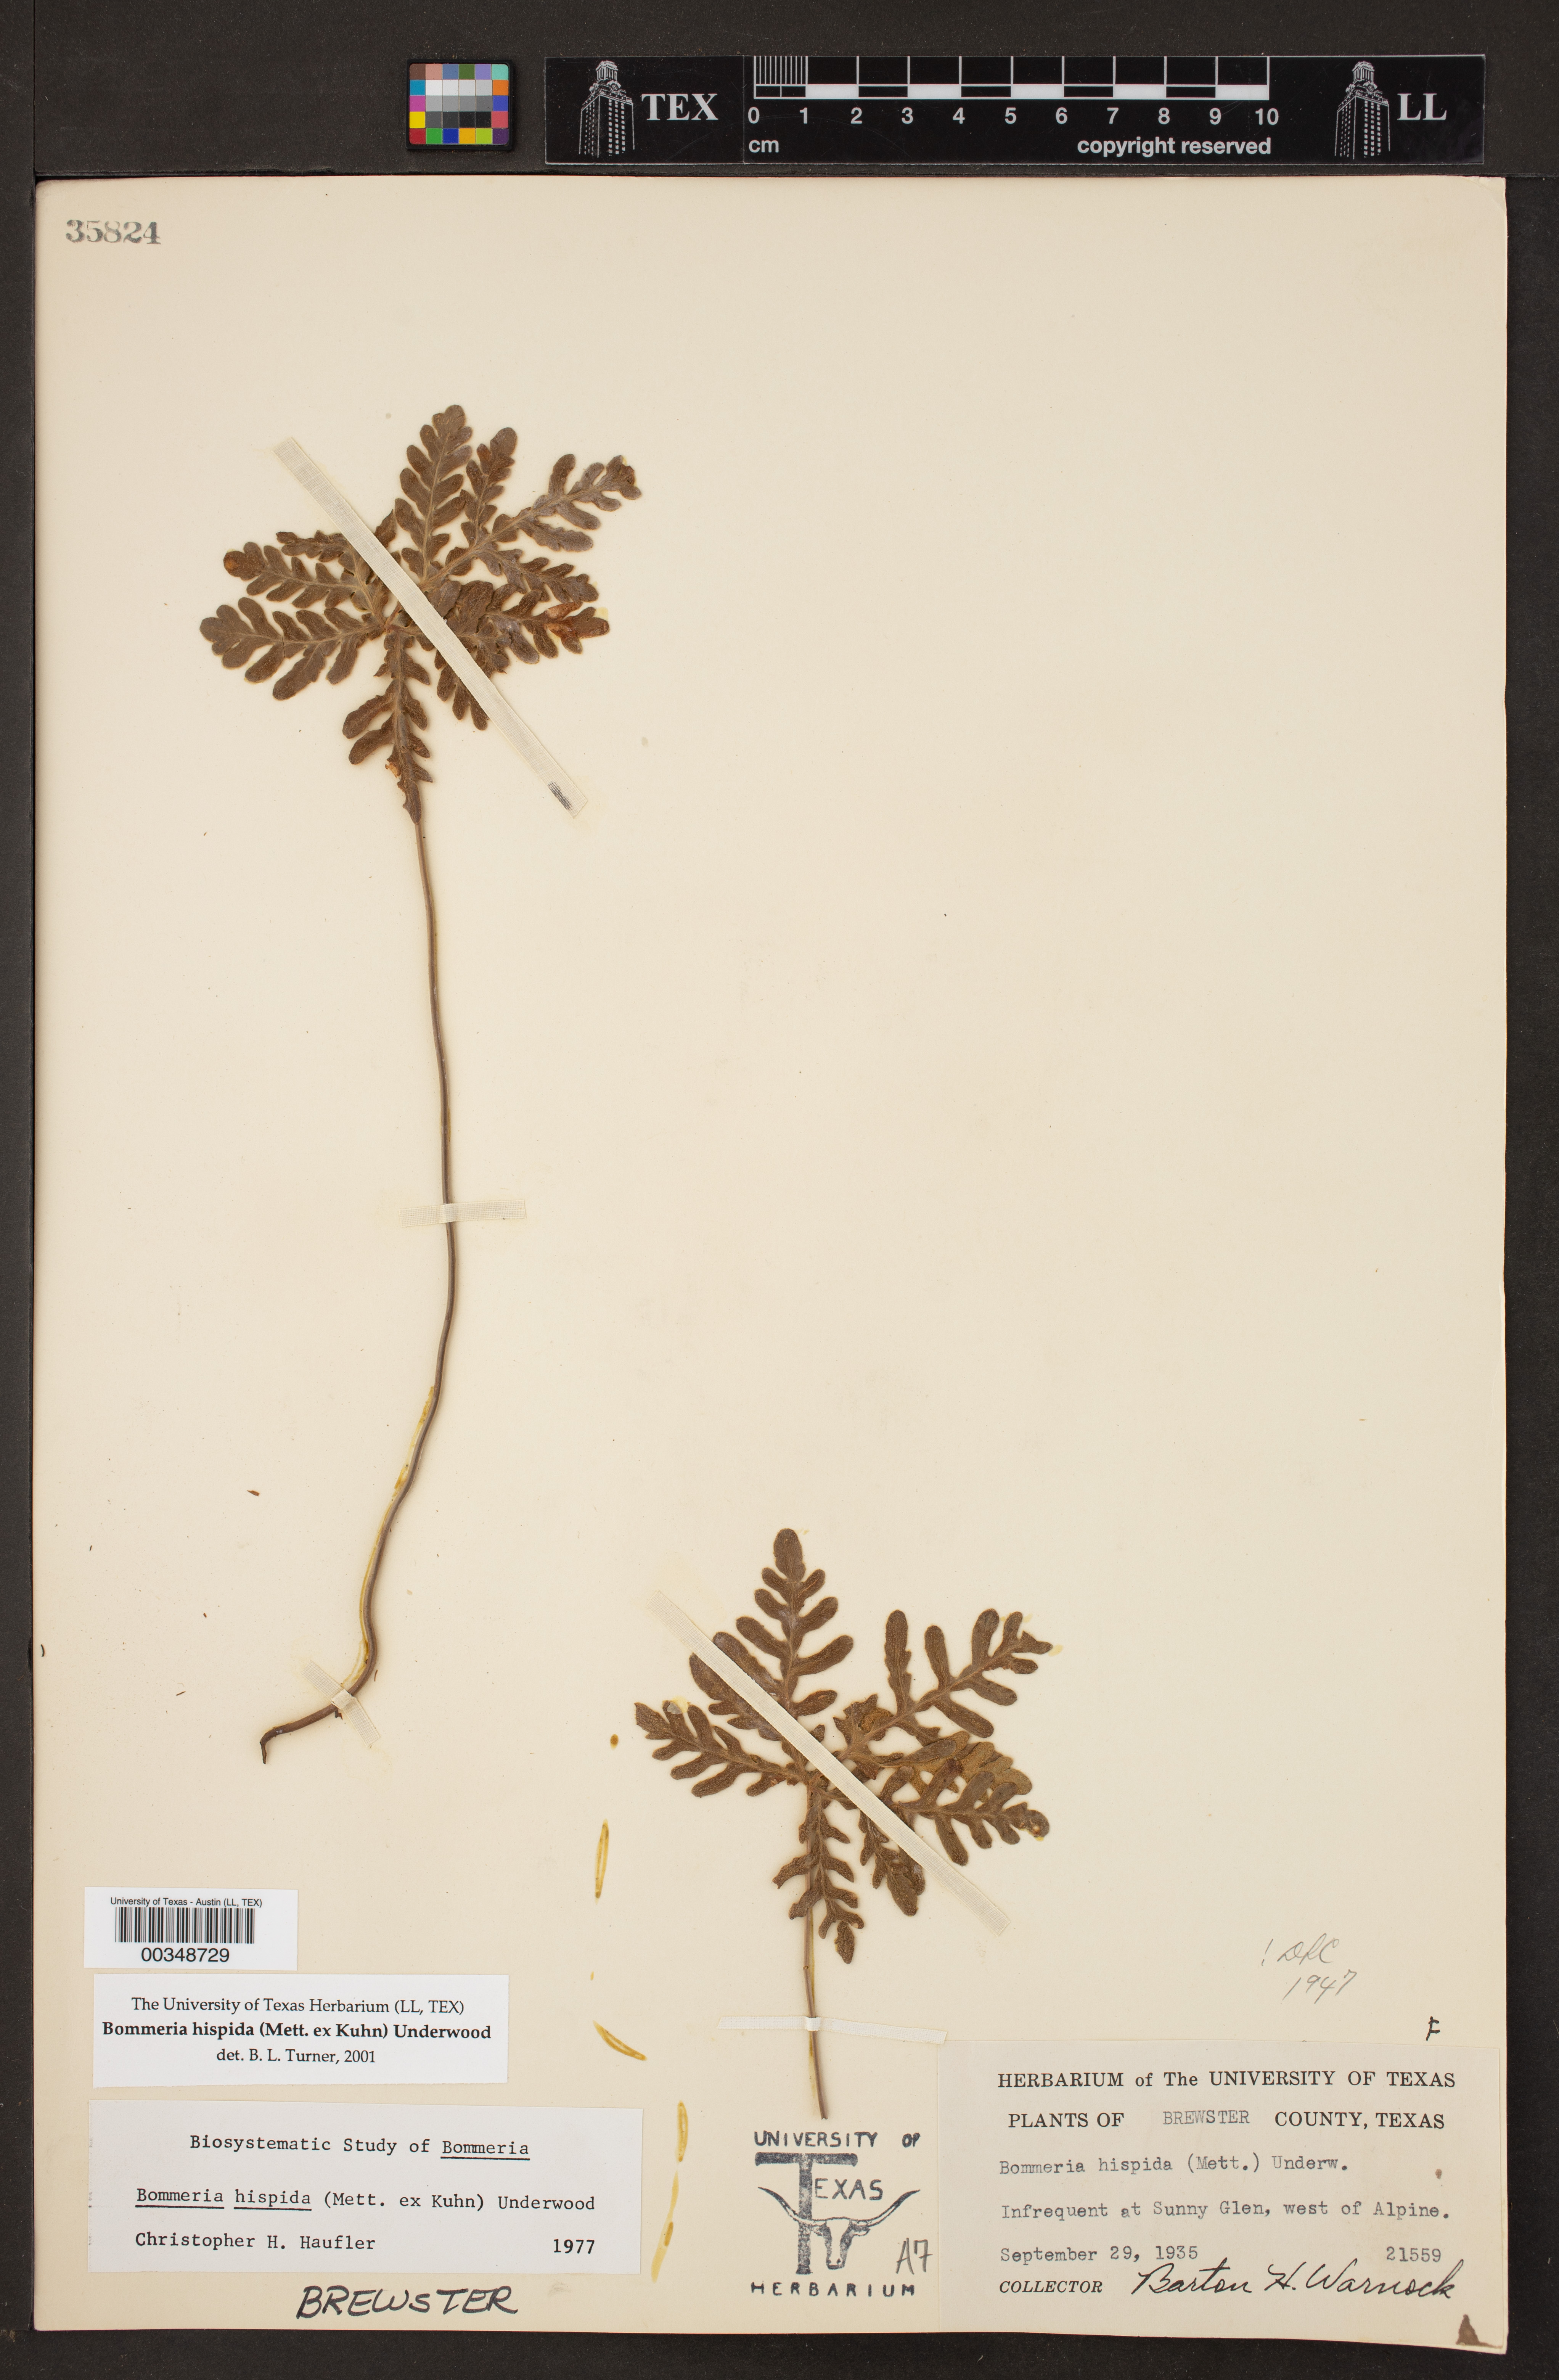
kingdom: Plantae
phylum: Tracheophyta
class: Polypodiopsida
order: Polypodiales
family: Pteridaceae
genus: Bommeria
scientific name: Bommeria hispida
